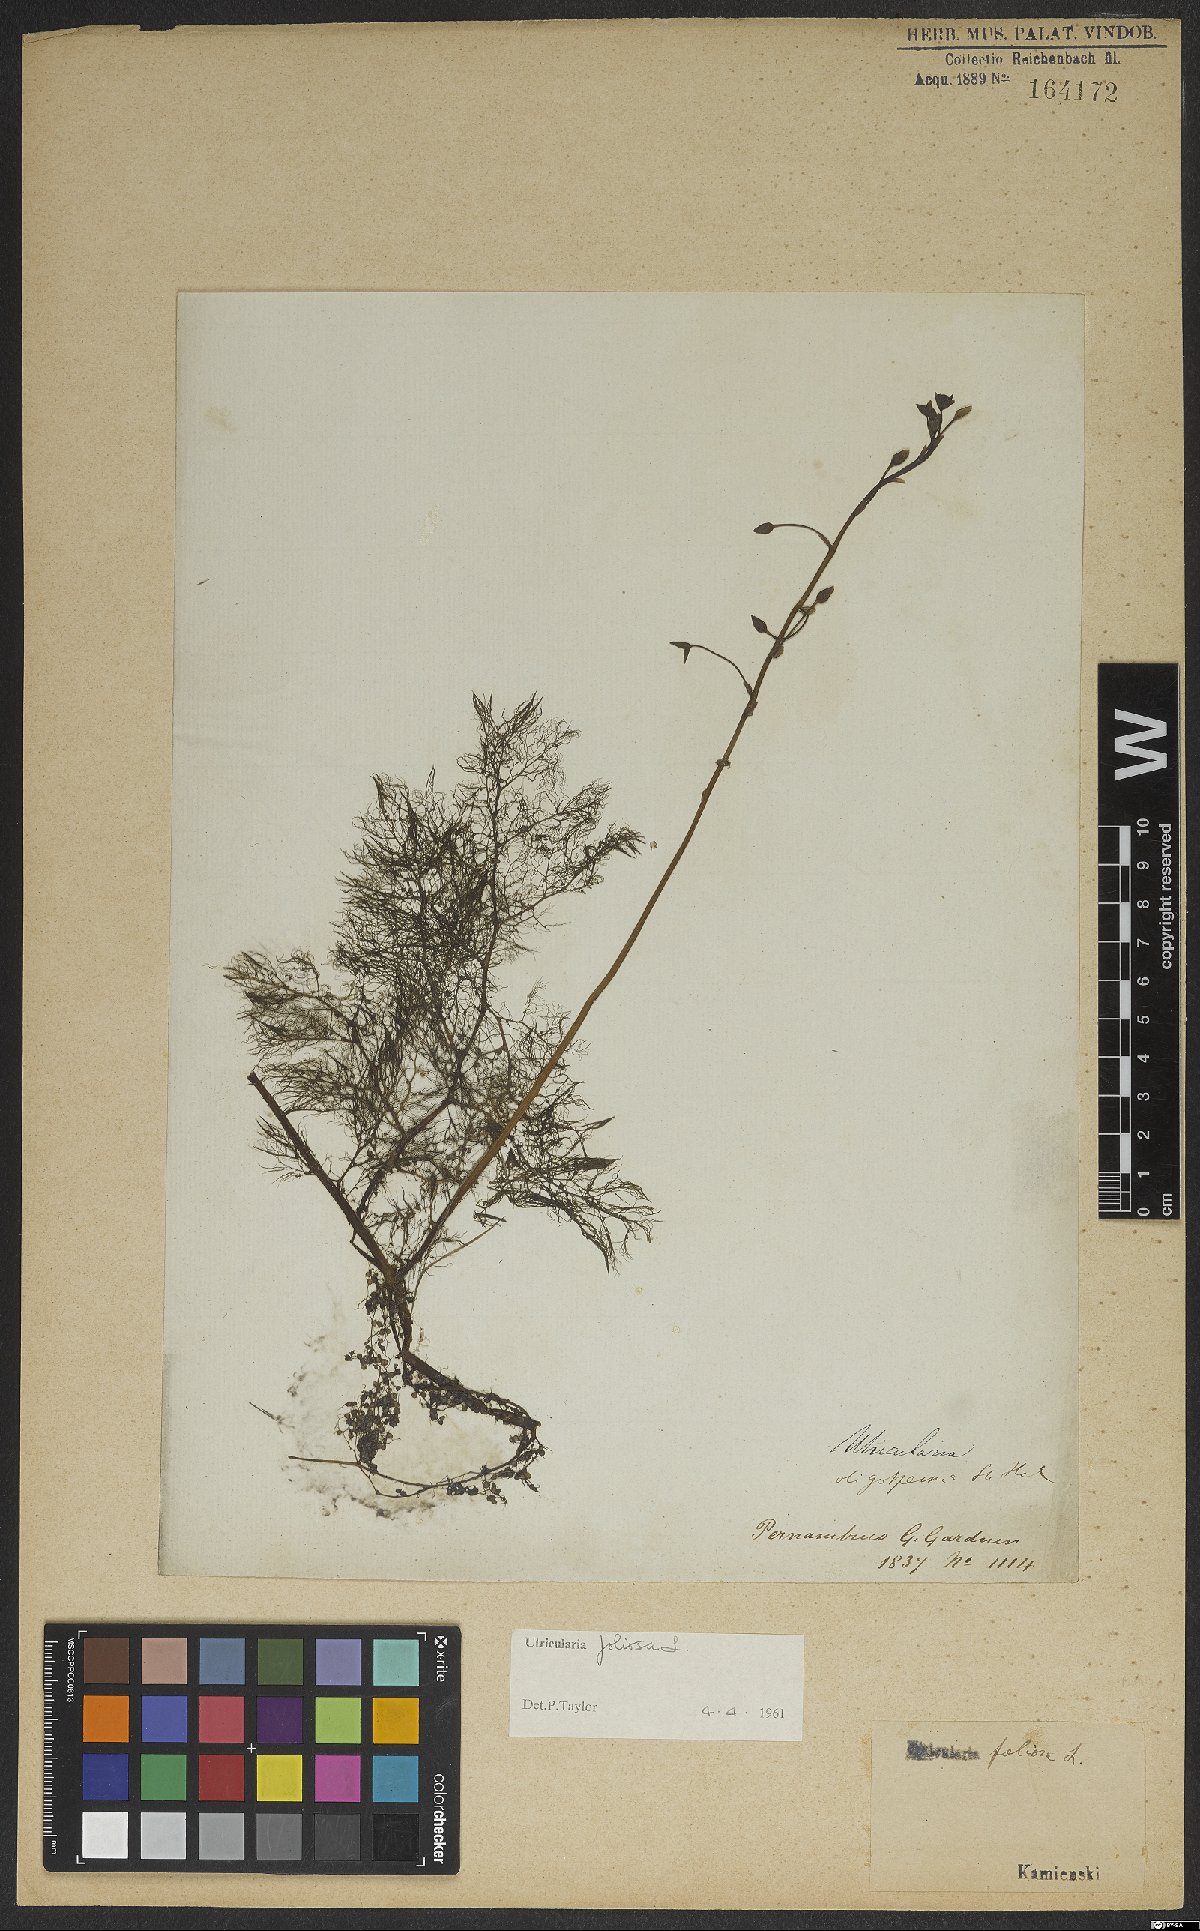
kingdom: Plantae
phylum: Tracheophyta
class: Magnoliopsida
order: Lamiales
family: Lentibulariaceae
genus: Utricularia
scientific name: Utricularia foliosa
